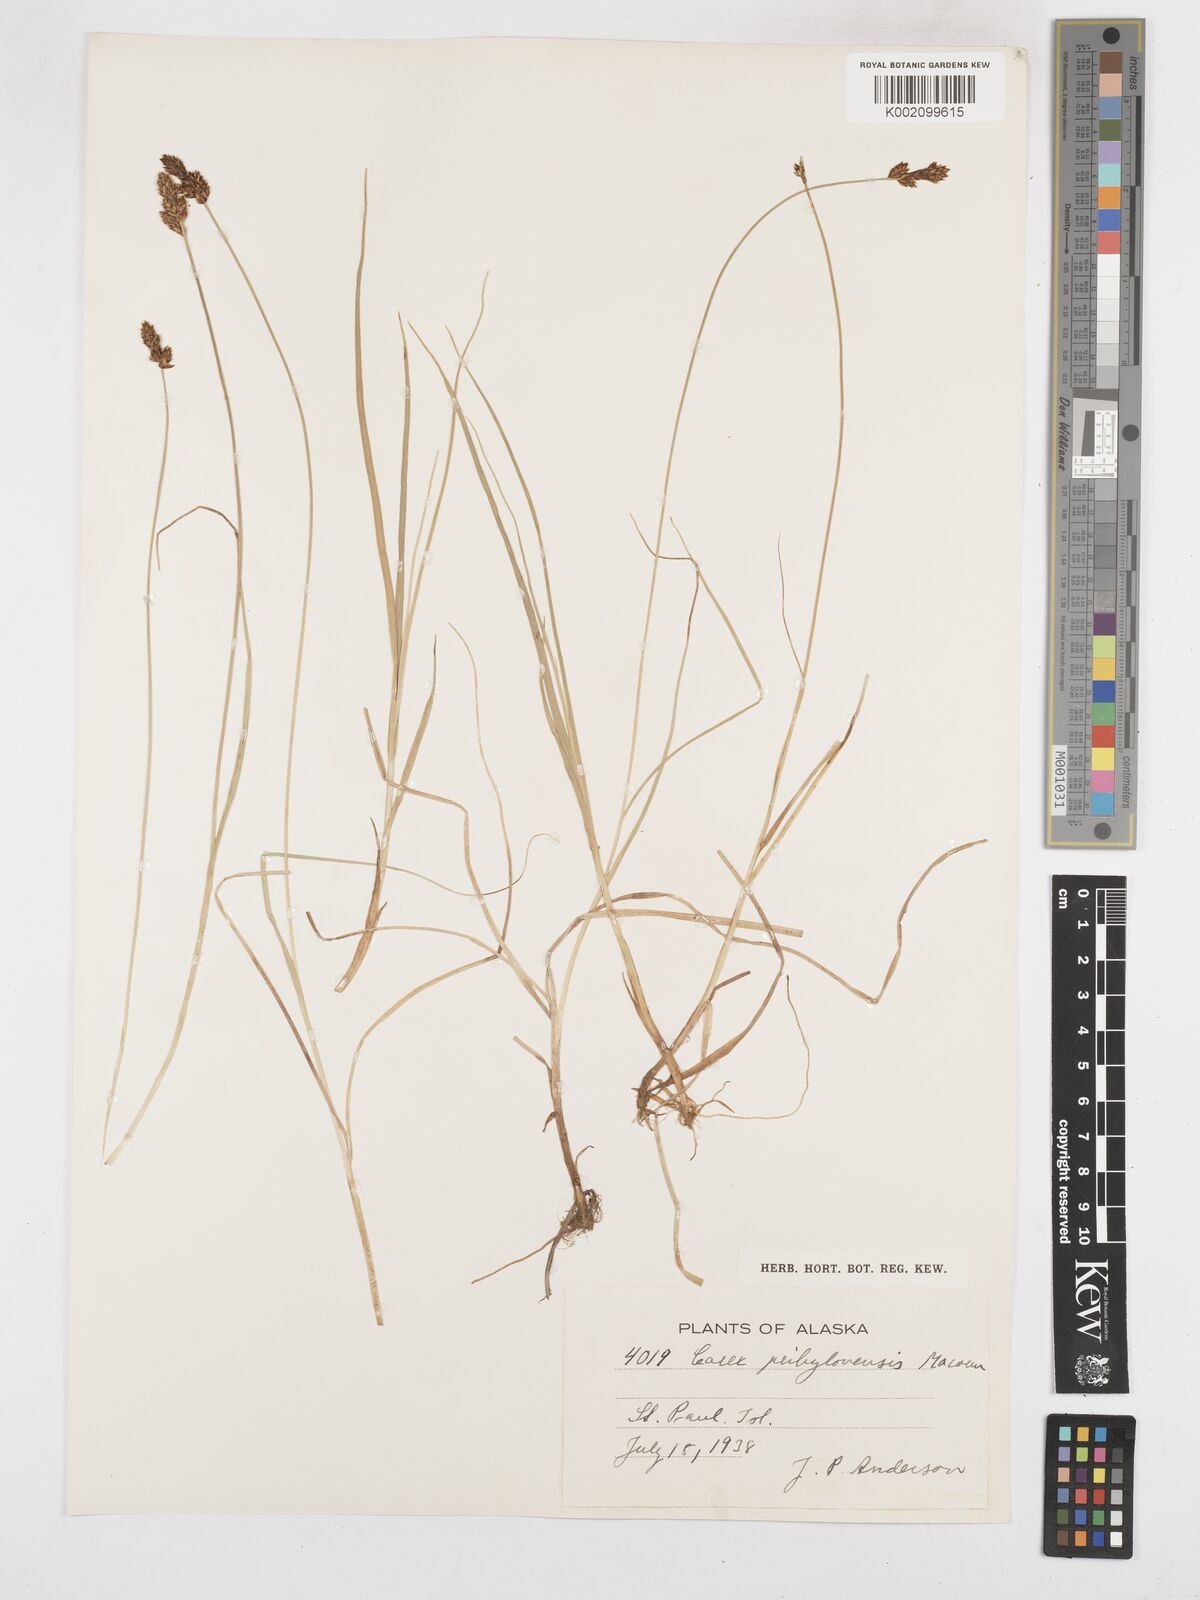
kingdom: Plantae
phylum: Tracheophyta
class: Liliopsida
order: Poales
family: Cyperaceae
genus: Carex
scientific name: Carex glareosa
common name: Clustered sedge
